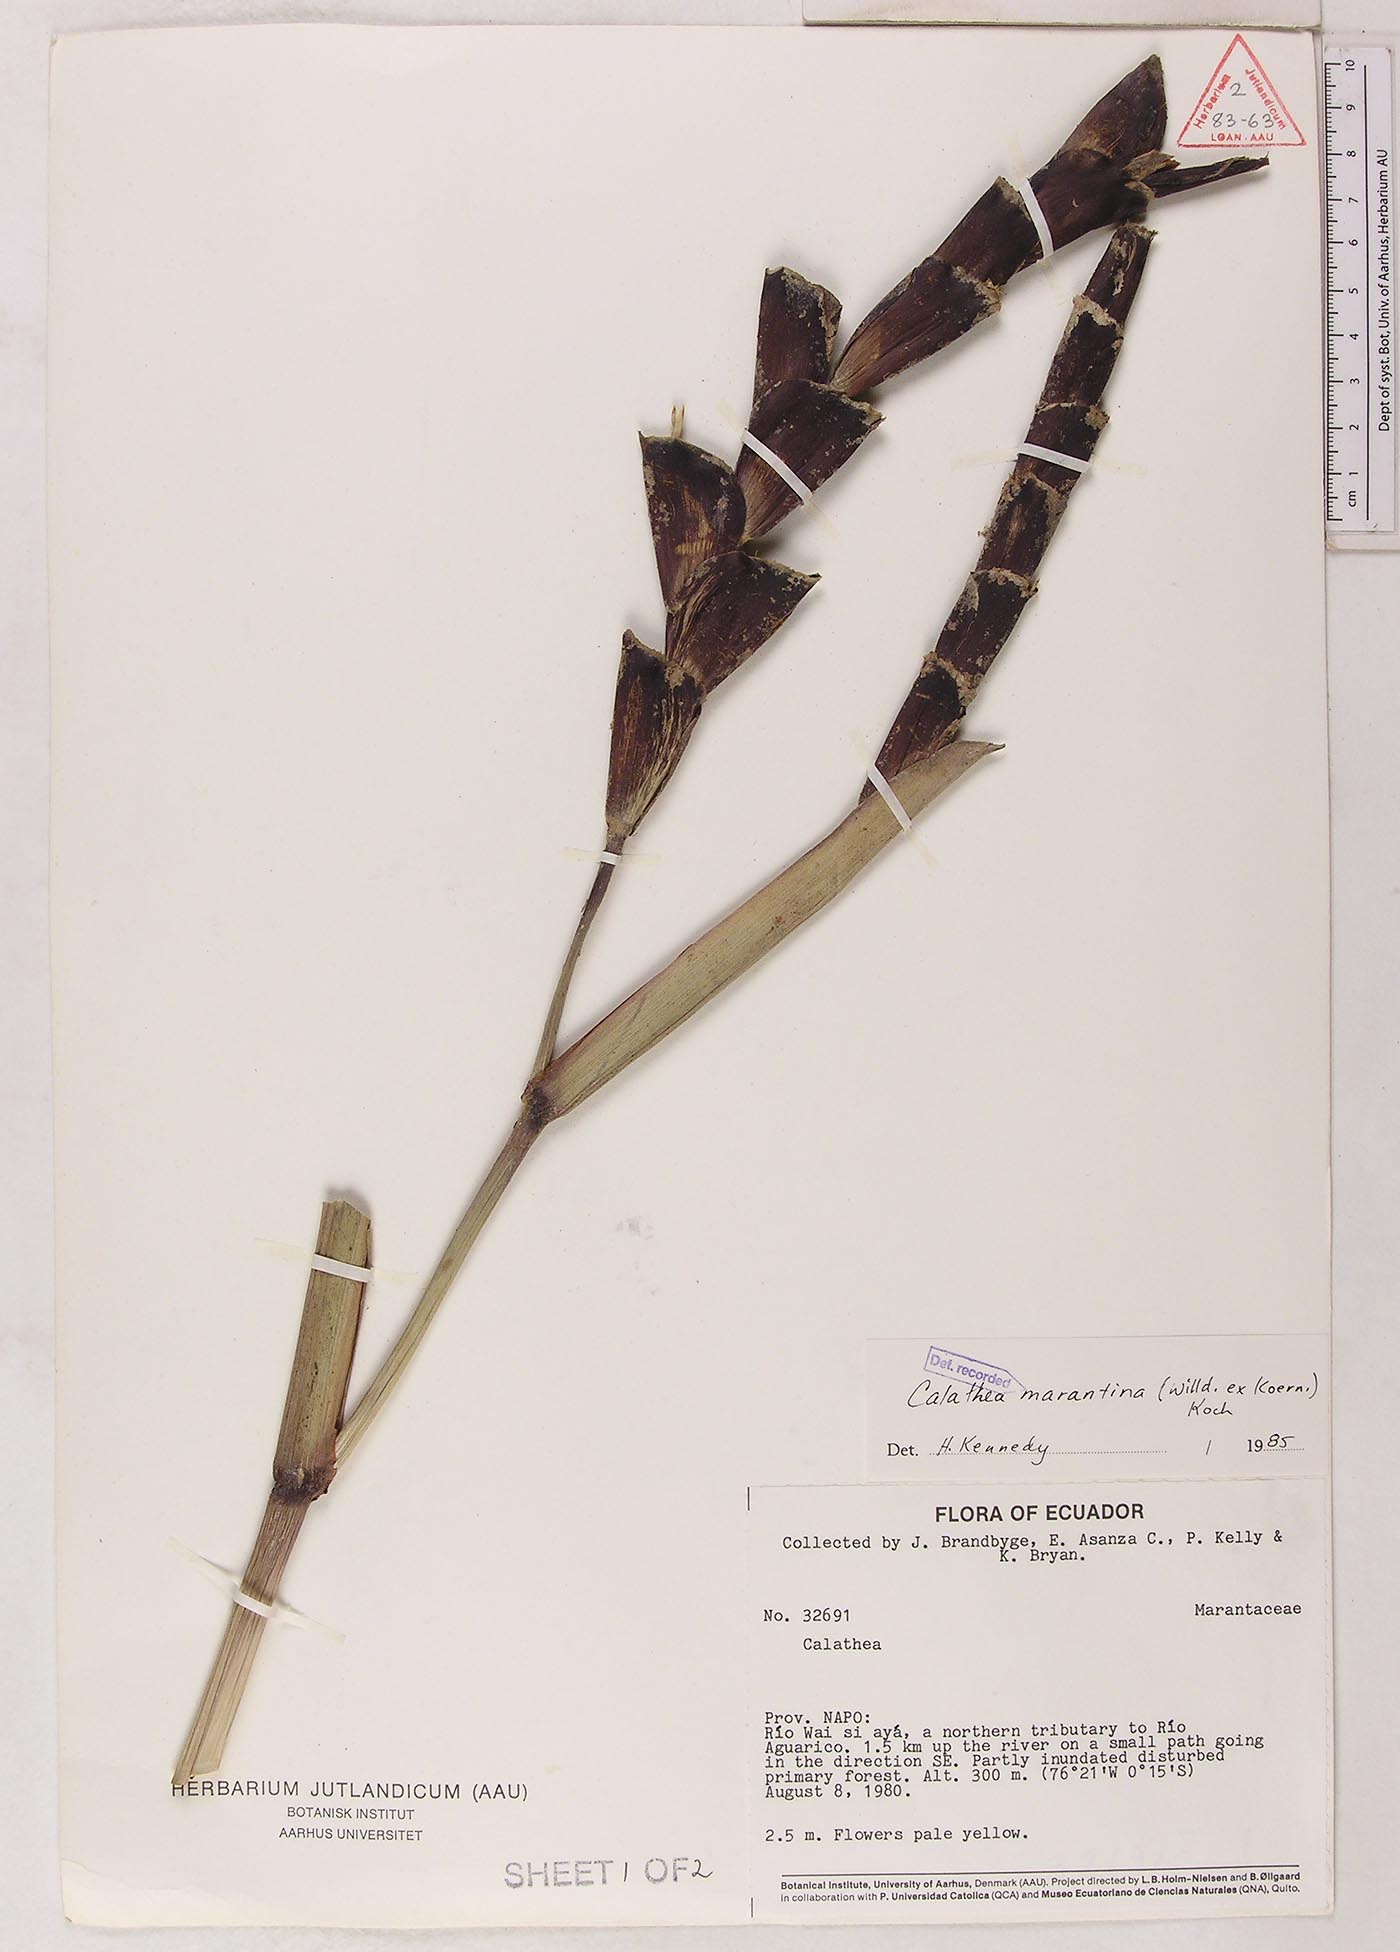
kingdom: Plantae
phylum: Tracheophyta
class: Liliopsida
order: Zingiberales
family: Marantaceae
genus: Calathea
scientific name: Calathea marantina
